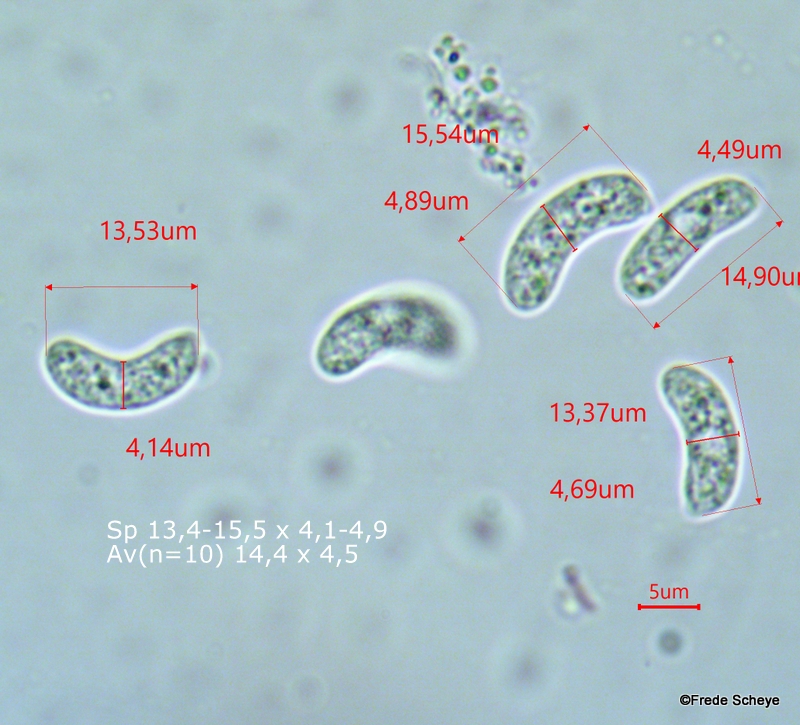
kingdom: Fungi
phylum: Basidiomycota
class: Agaricomycetes
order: Auriculariales
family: Auriculariaceae
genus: Exidia
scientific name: Exidia nigricans
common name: almindelig bævretop
